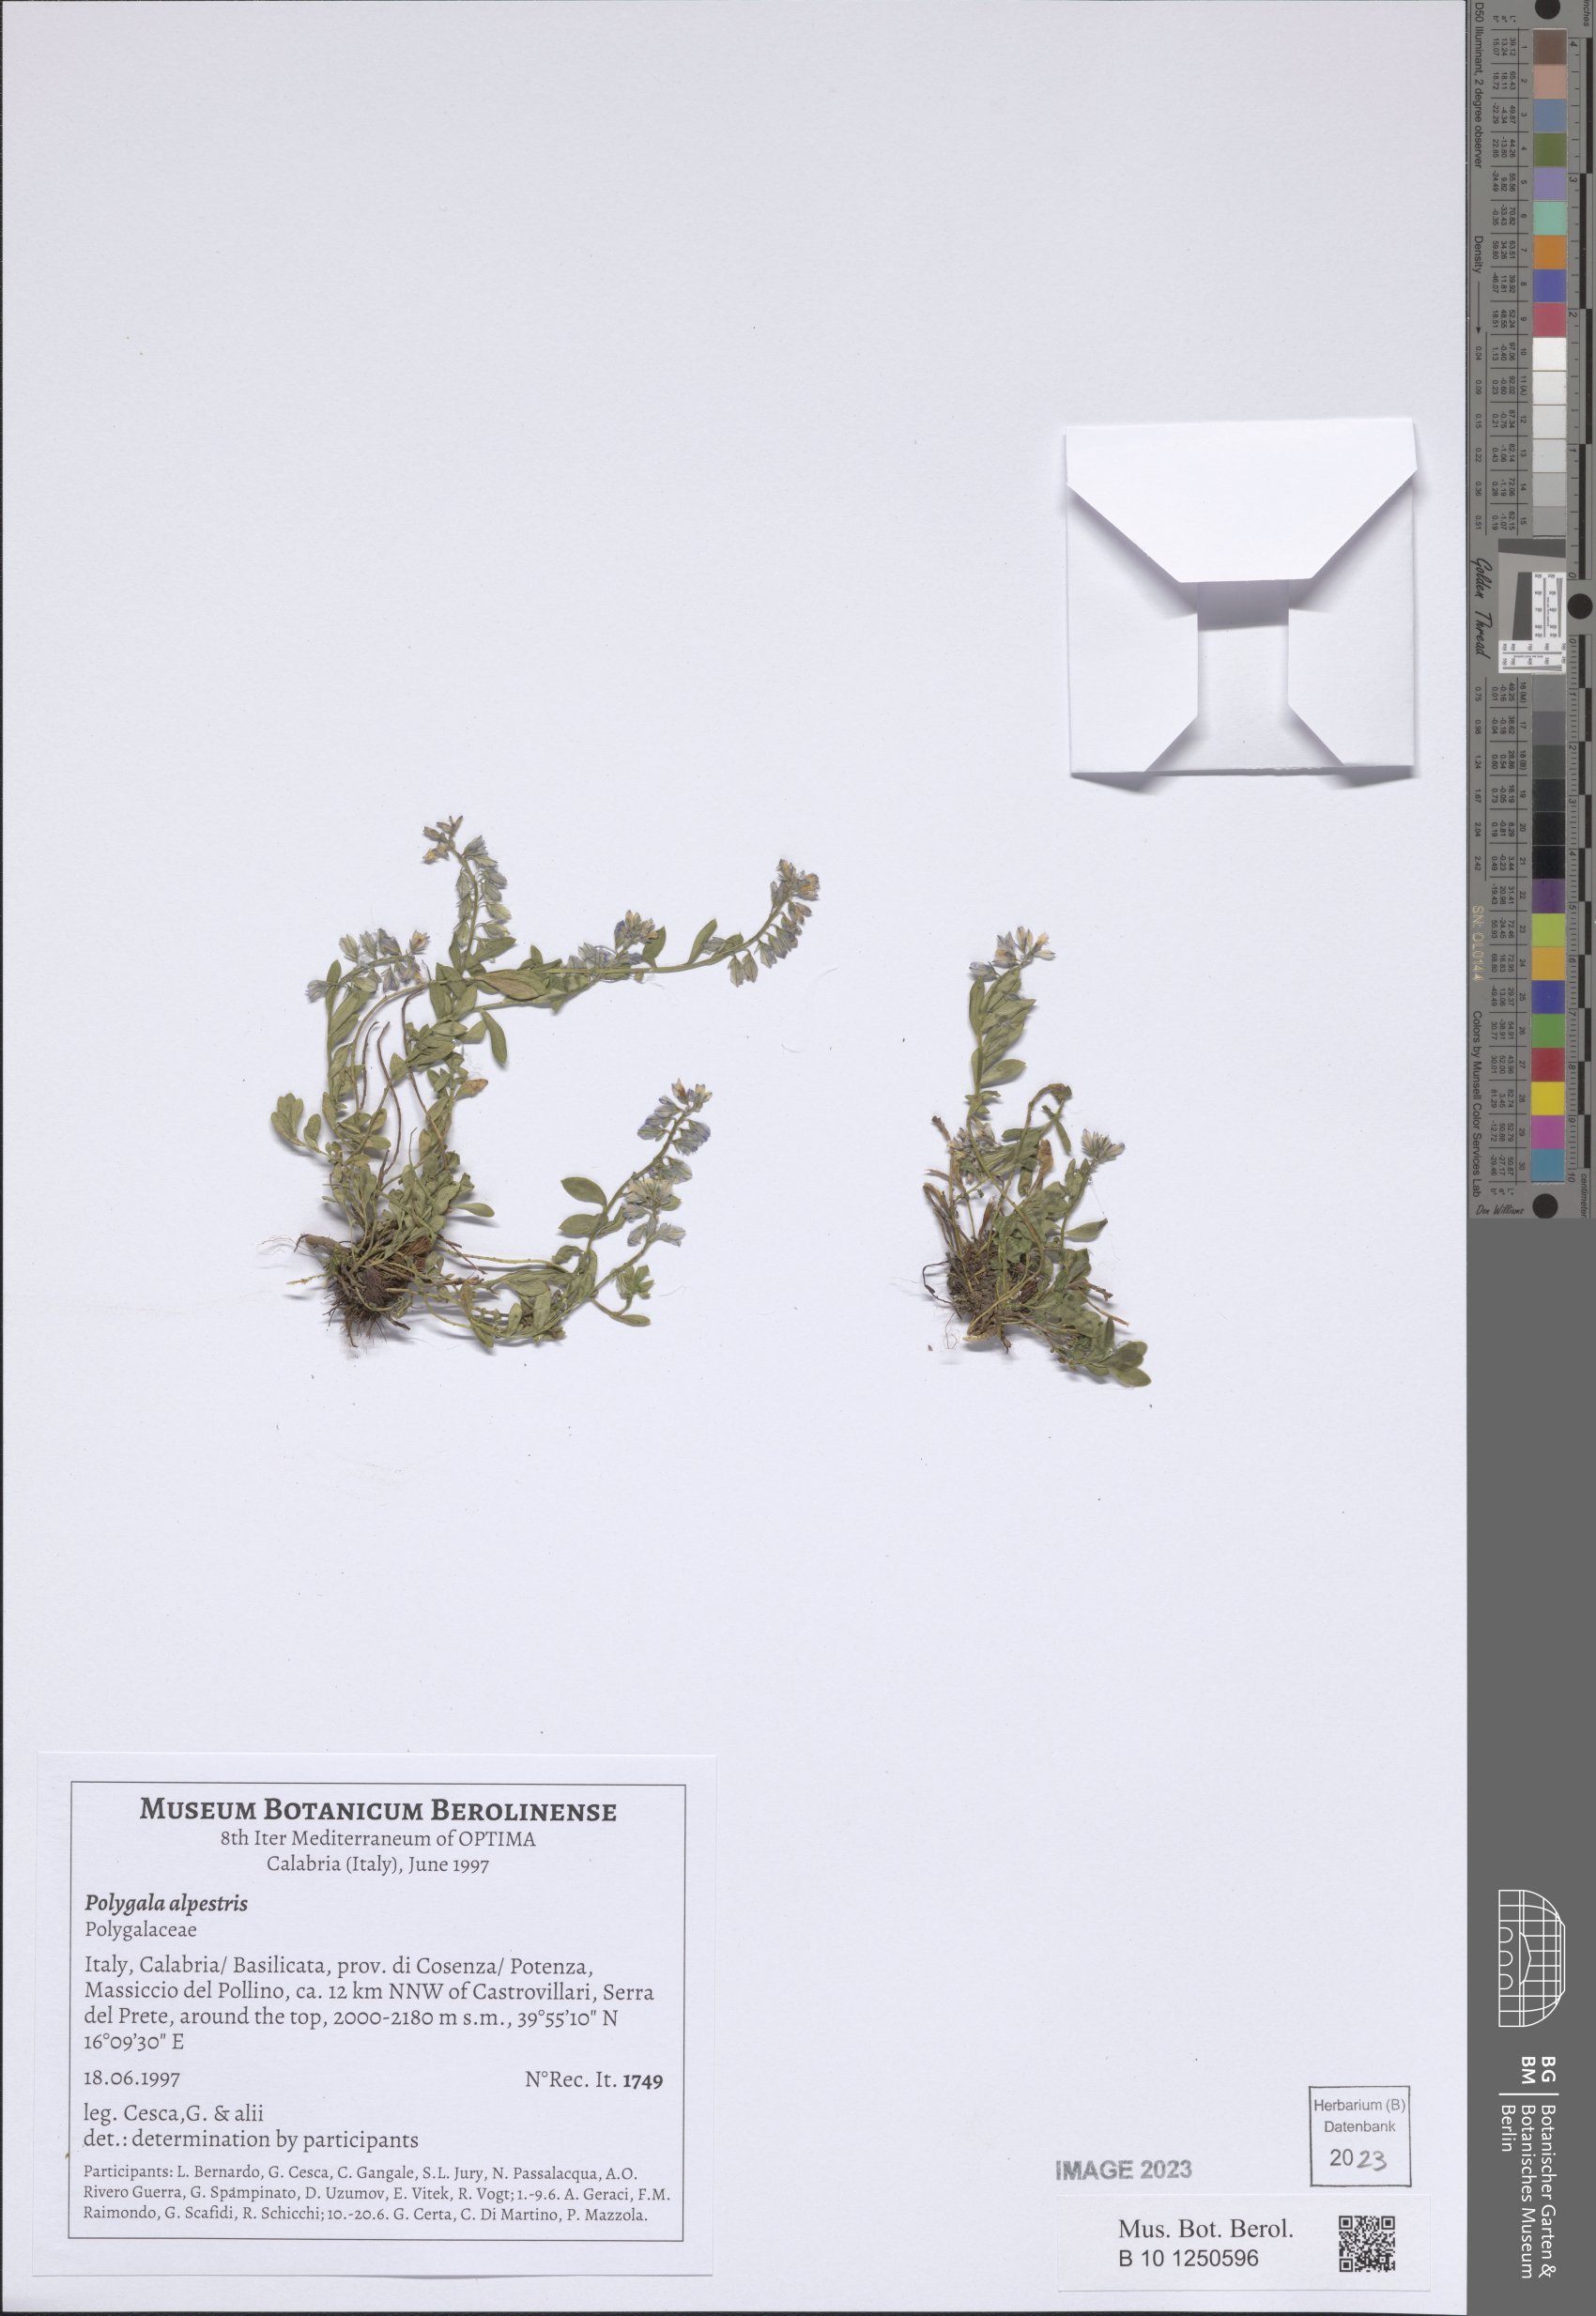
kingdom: Plantae
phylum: Tracheophyta
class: Magnoliopsida
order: Fabales
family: Polygalaceae
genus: Polygala
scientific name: Polygala alpestris
